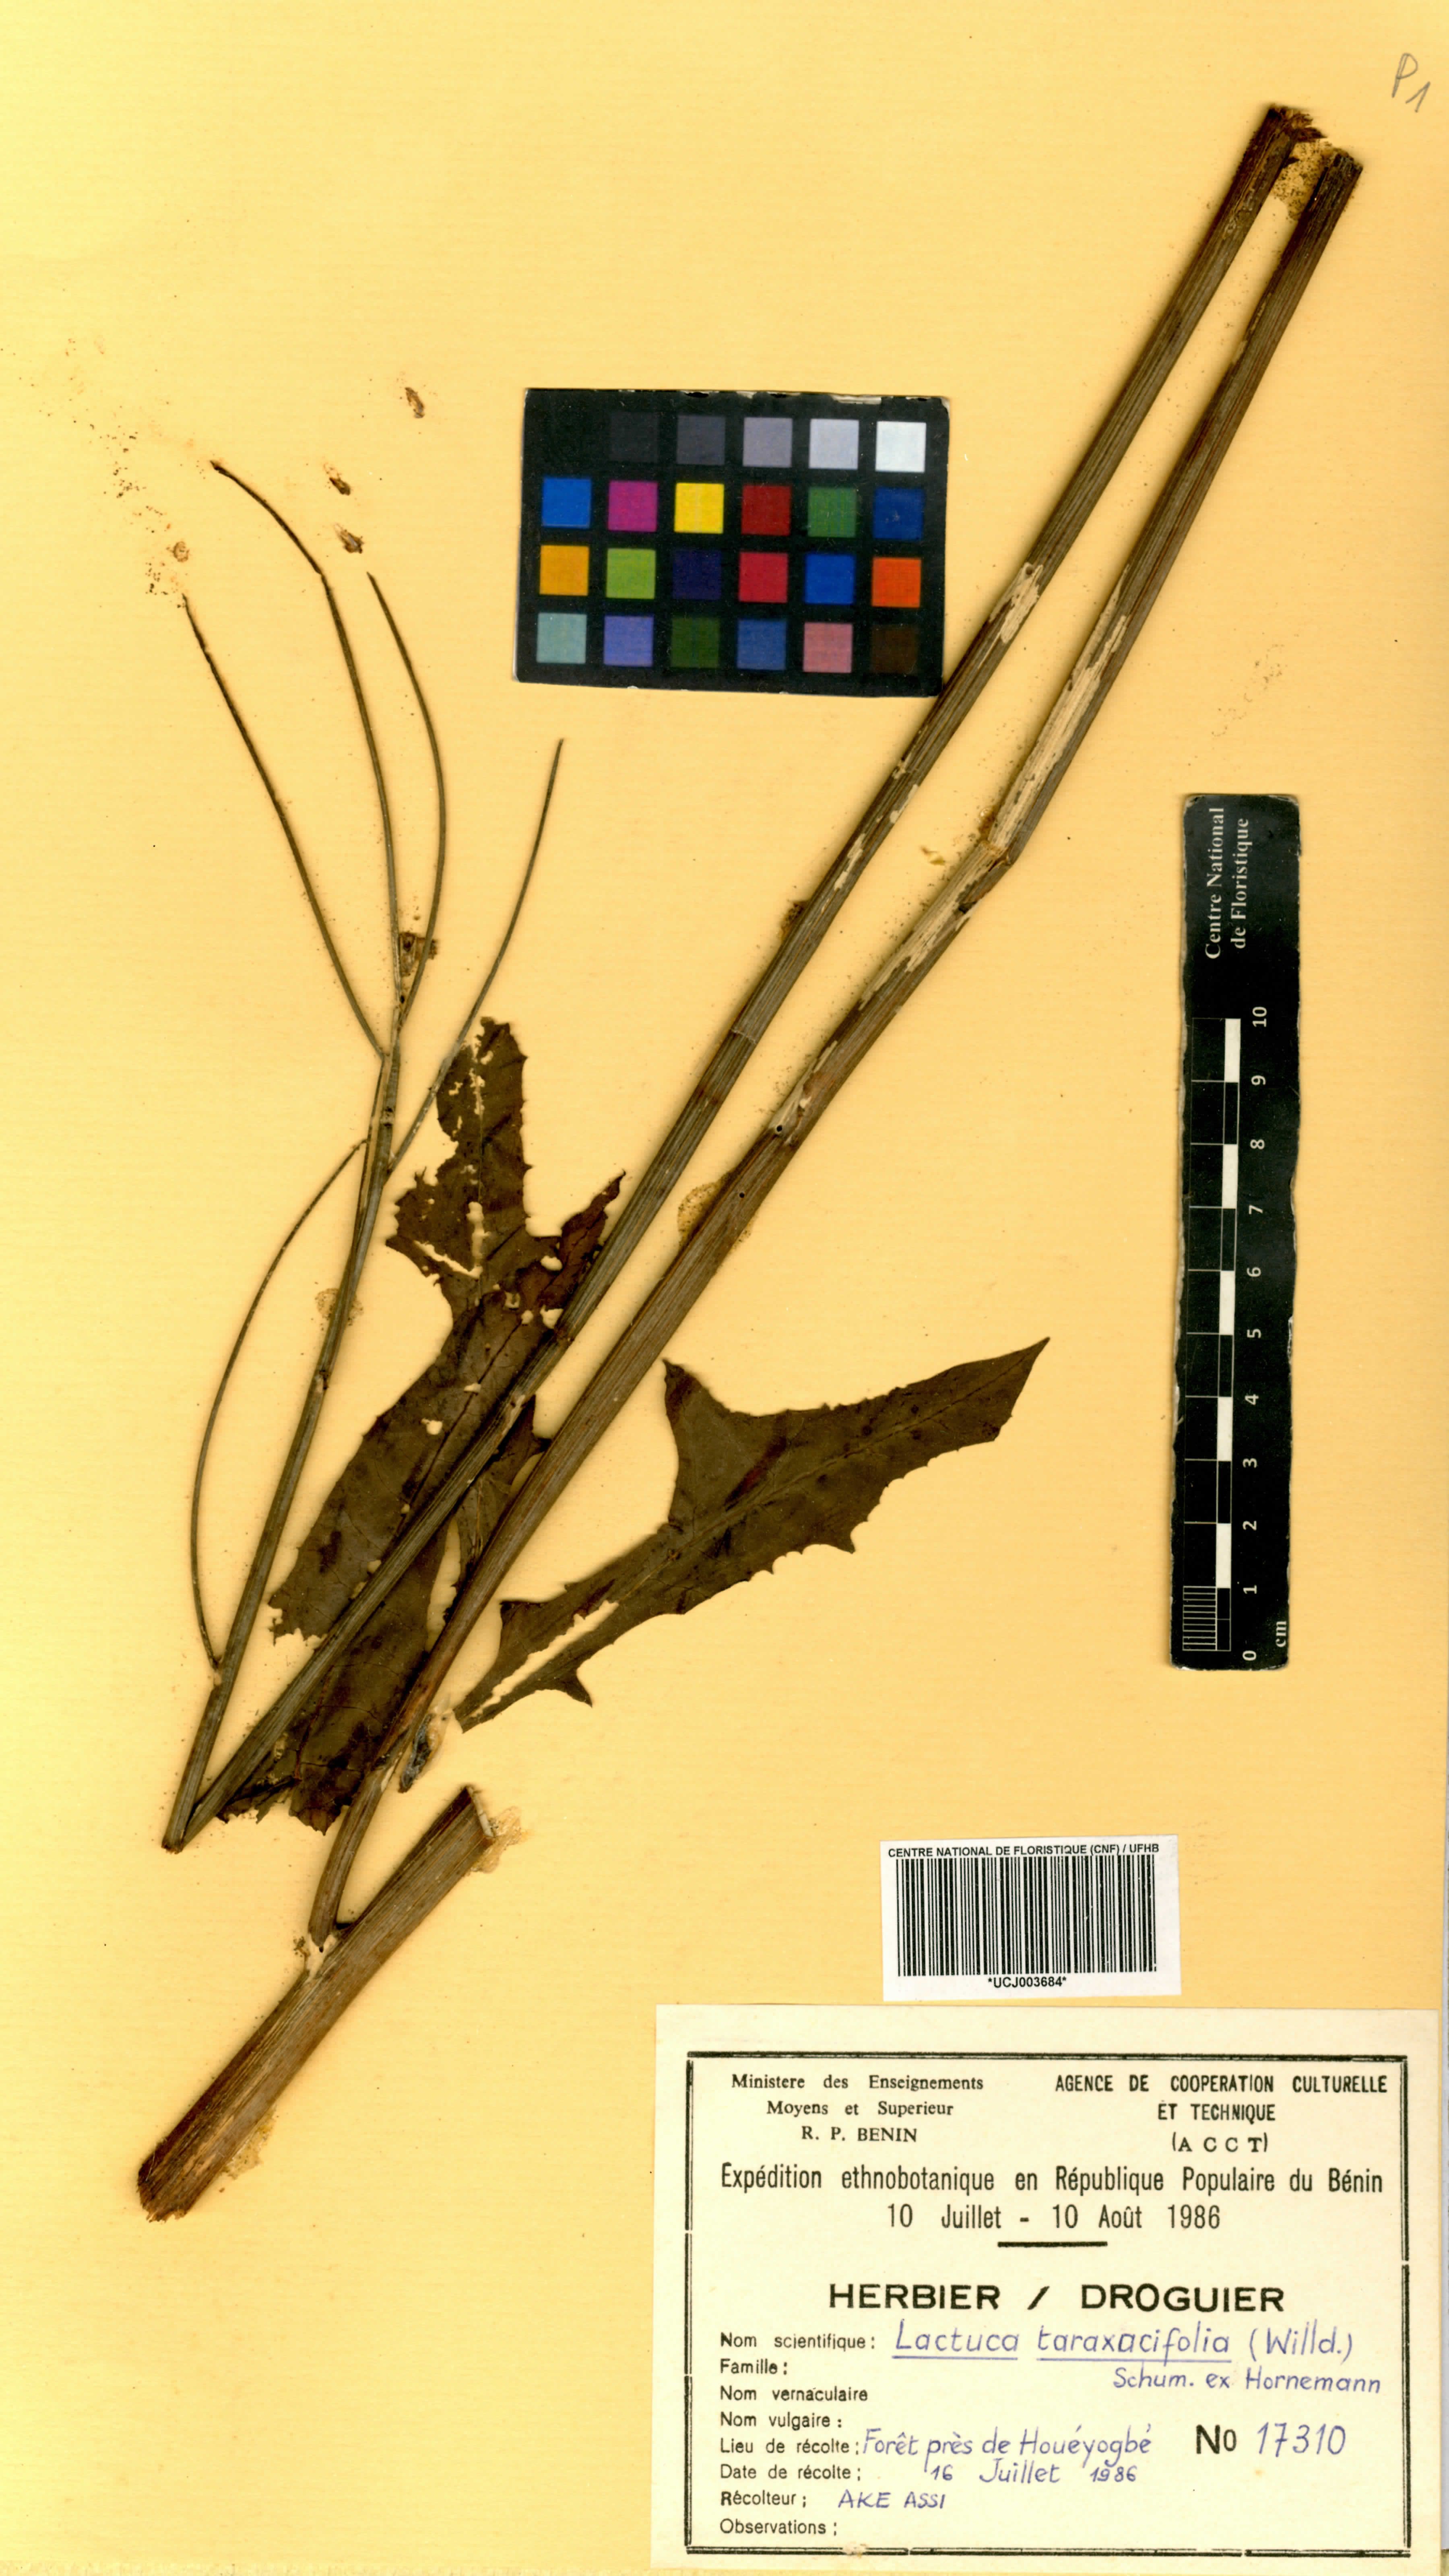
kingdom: Plantae
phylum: Tracheophyta
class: Magnoliopsida
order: Asterales
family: Asteraceae
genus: Launaea
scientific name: Launaea taraxacifolia
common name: African-lettuce
